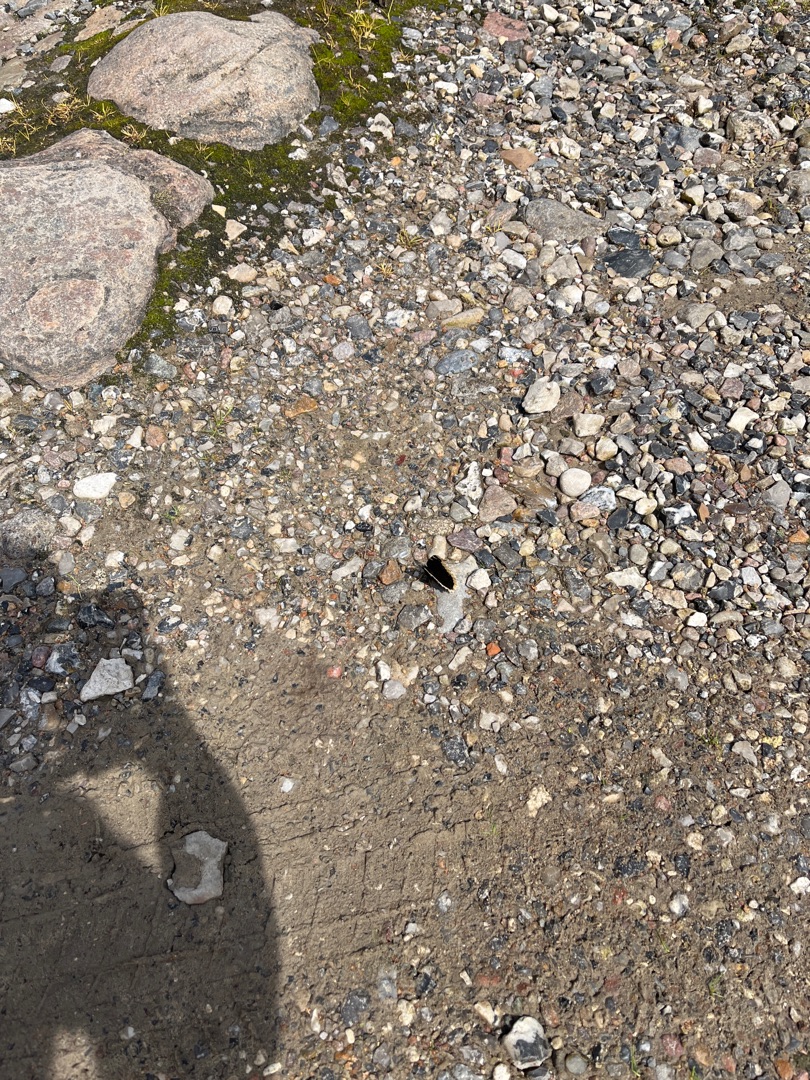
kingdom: Animalia
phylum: Arthropoda
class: Insecta
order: Lepidoptera
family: Nymphalidae
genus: Nymphalis
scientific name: Nymphalis antiopa
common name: Sørgekåbe
